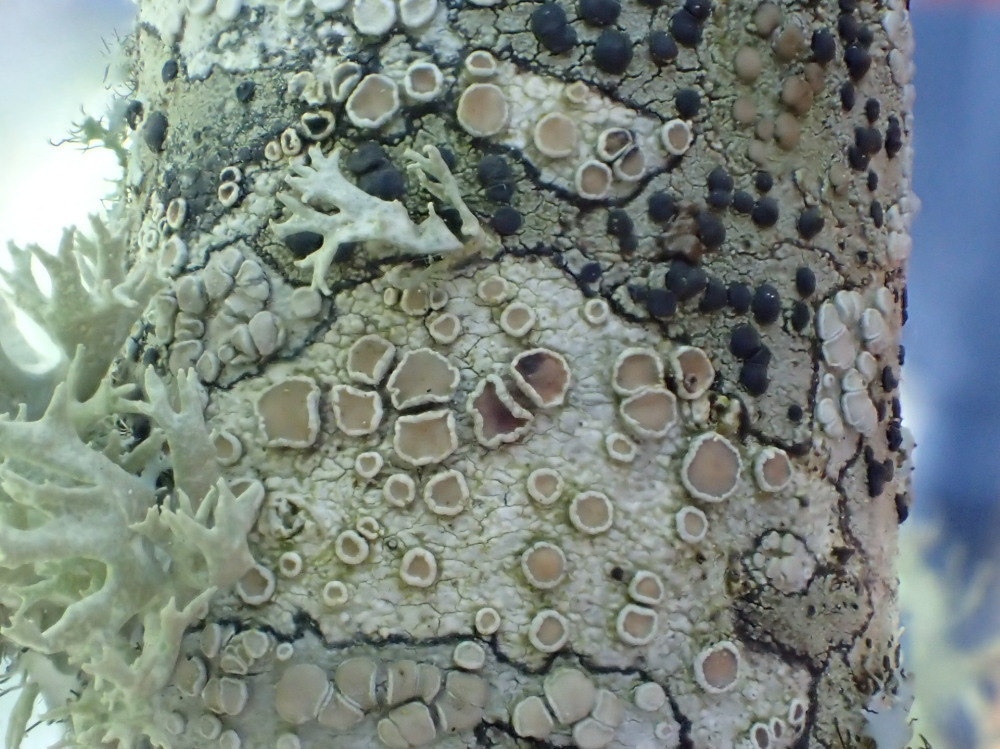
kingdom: Fungi
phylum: Ascomycota
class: Lecanoromycetes
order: Lecanorales
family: Lecanoraceae
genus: Lecanora
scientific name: Lecanora chlarotera
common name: brun kantskivelav
